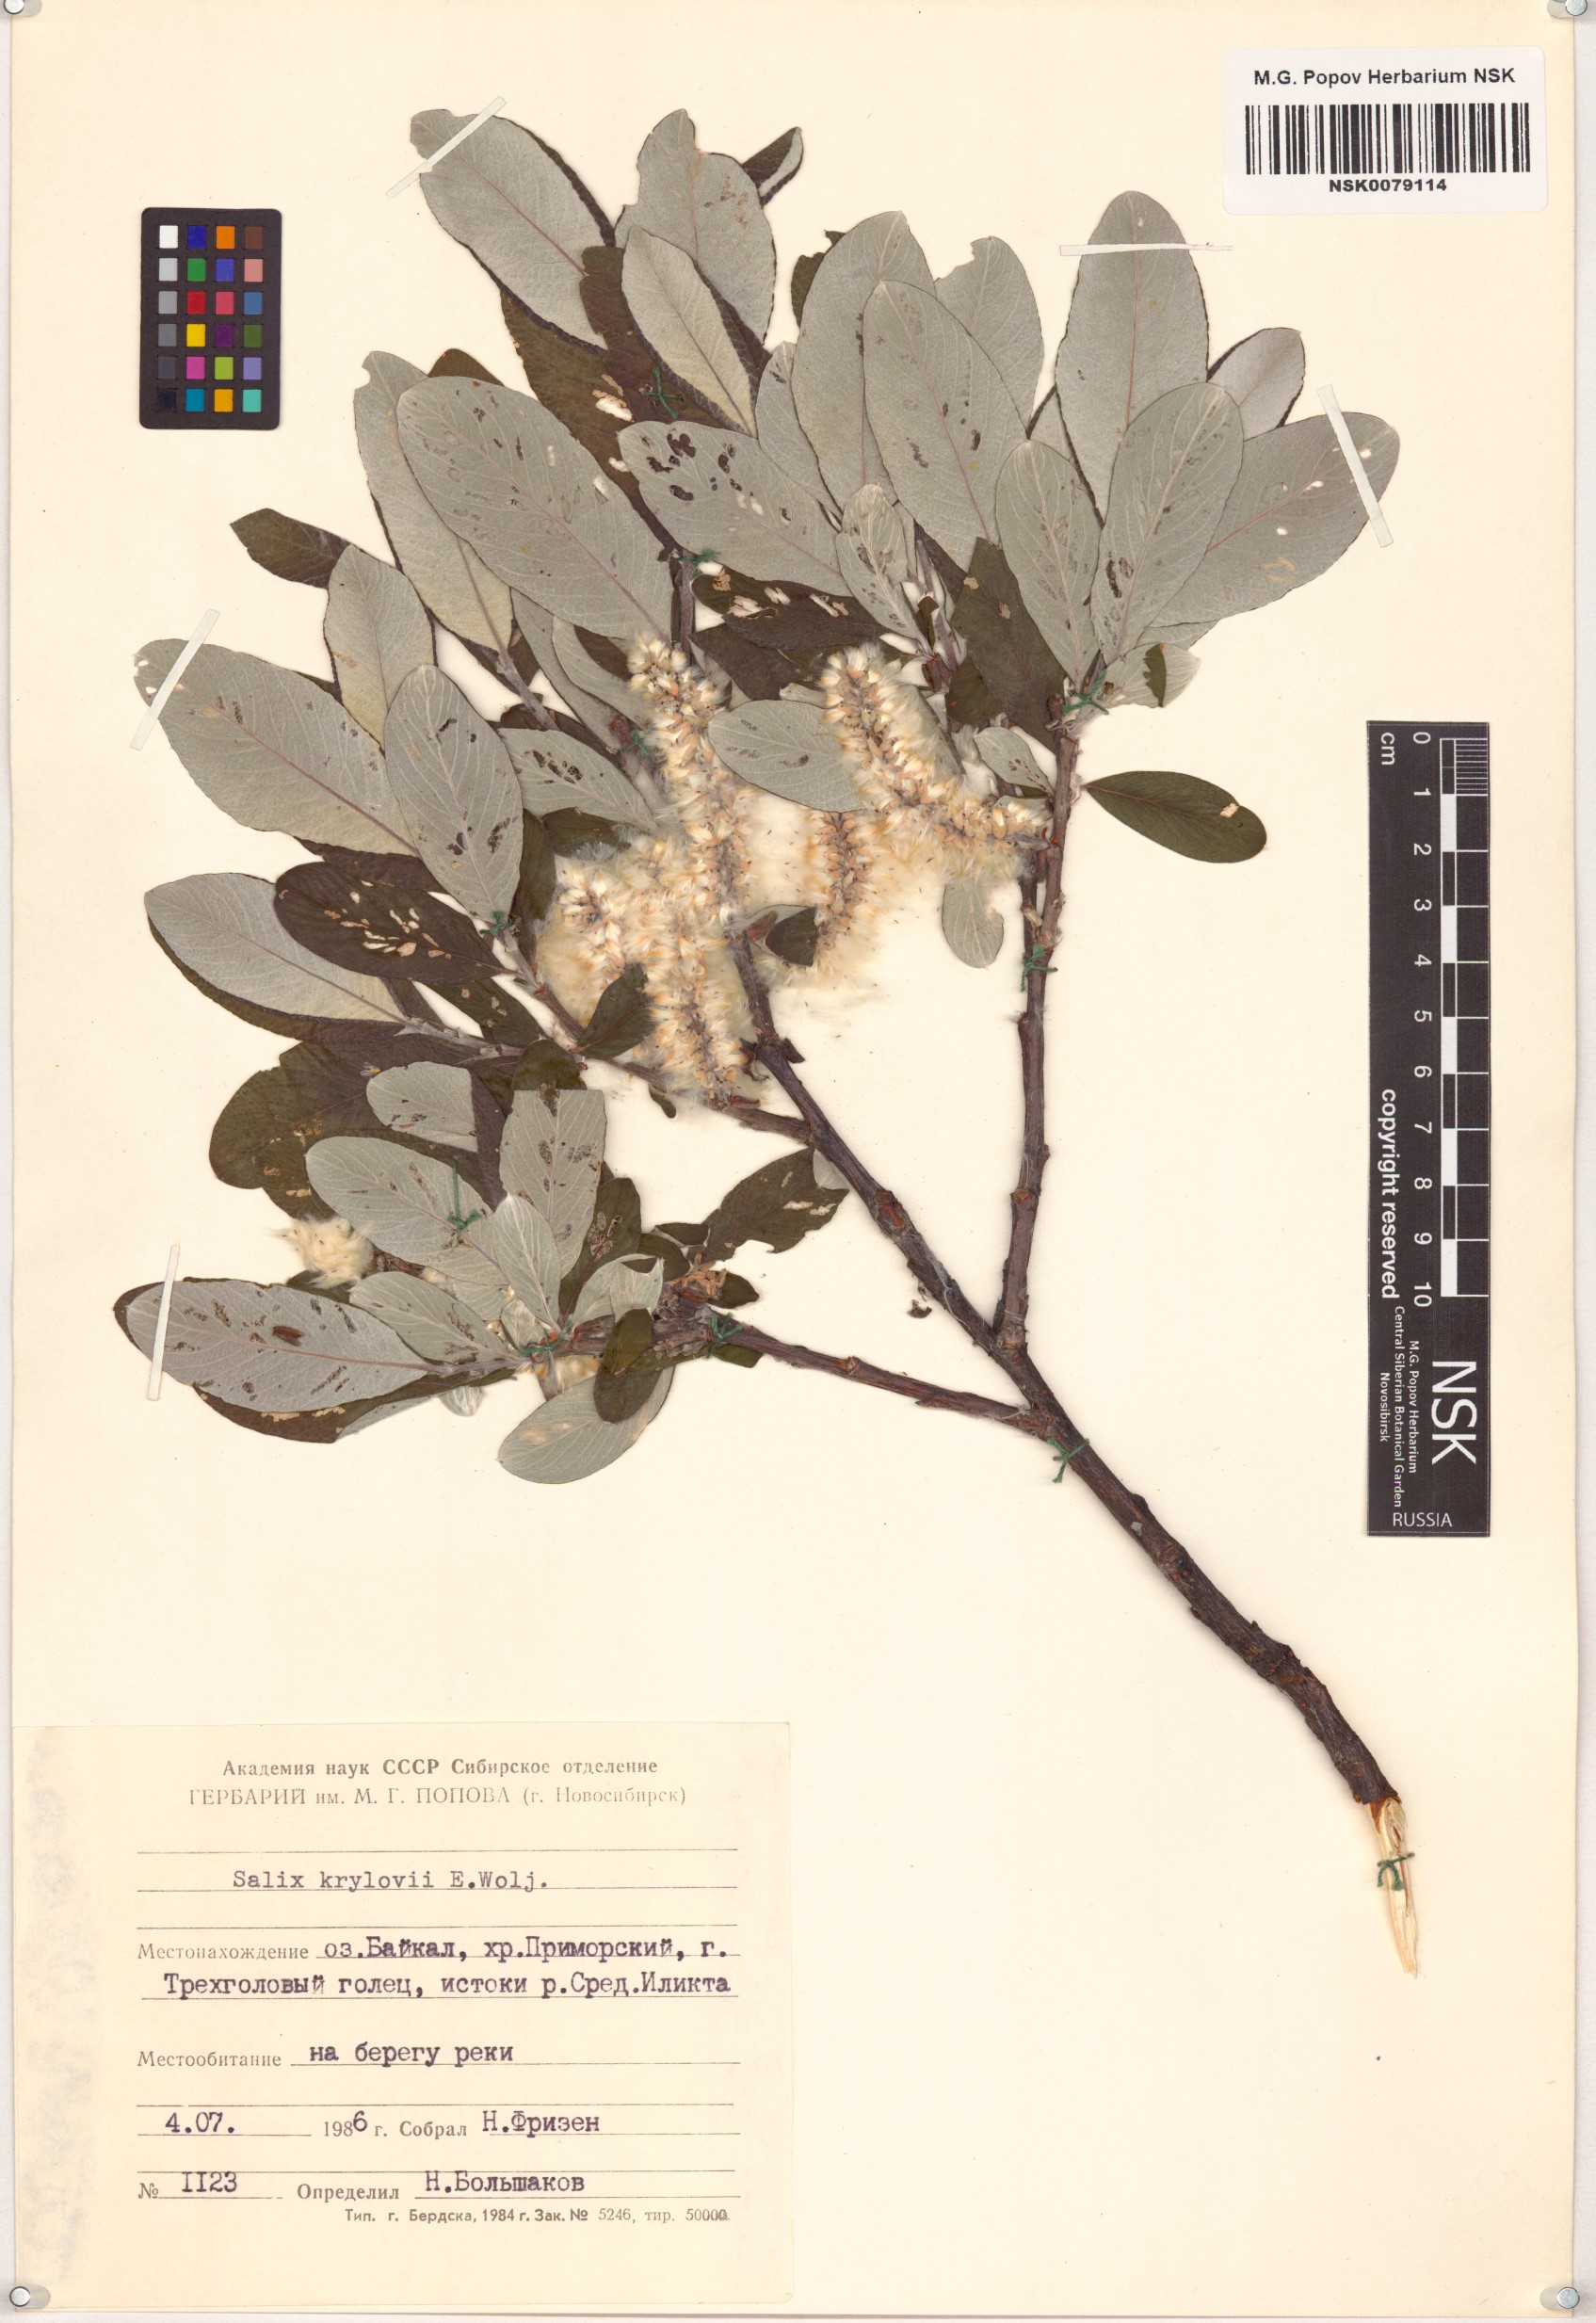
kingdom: Plantae
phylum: Tracheophyta
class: Magnoliopsida
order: Malpighiales
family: Salicaceae
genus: Salix
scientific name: Salix krylovii
